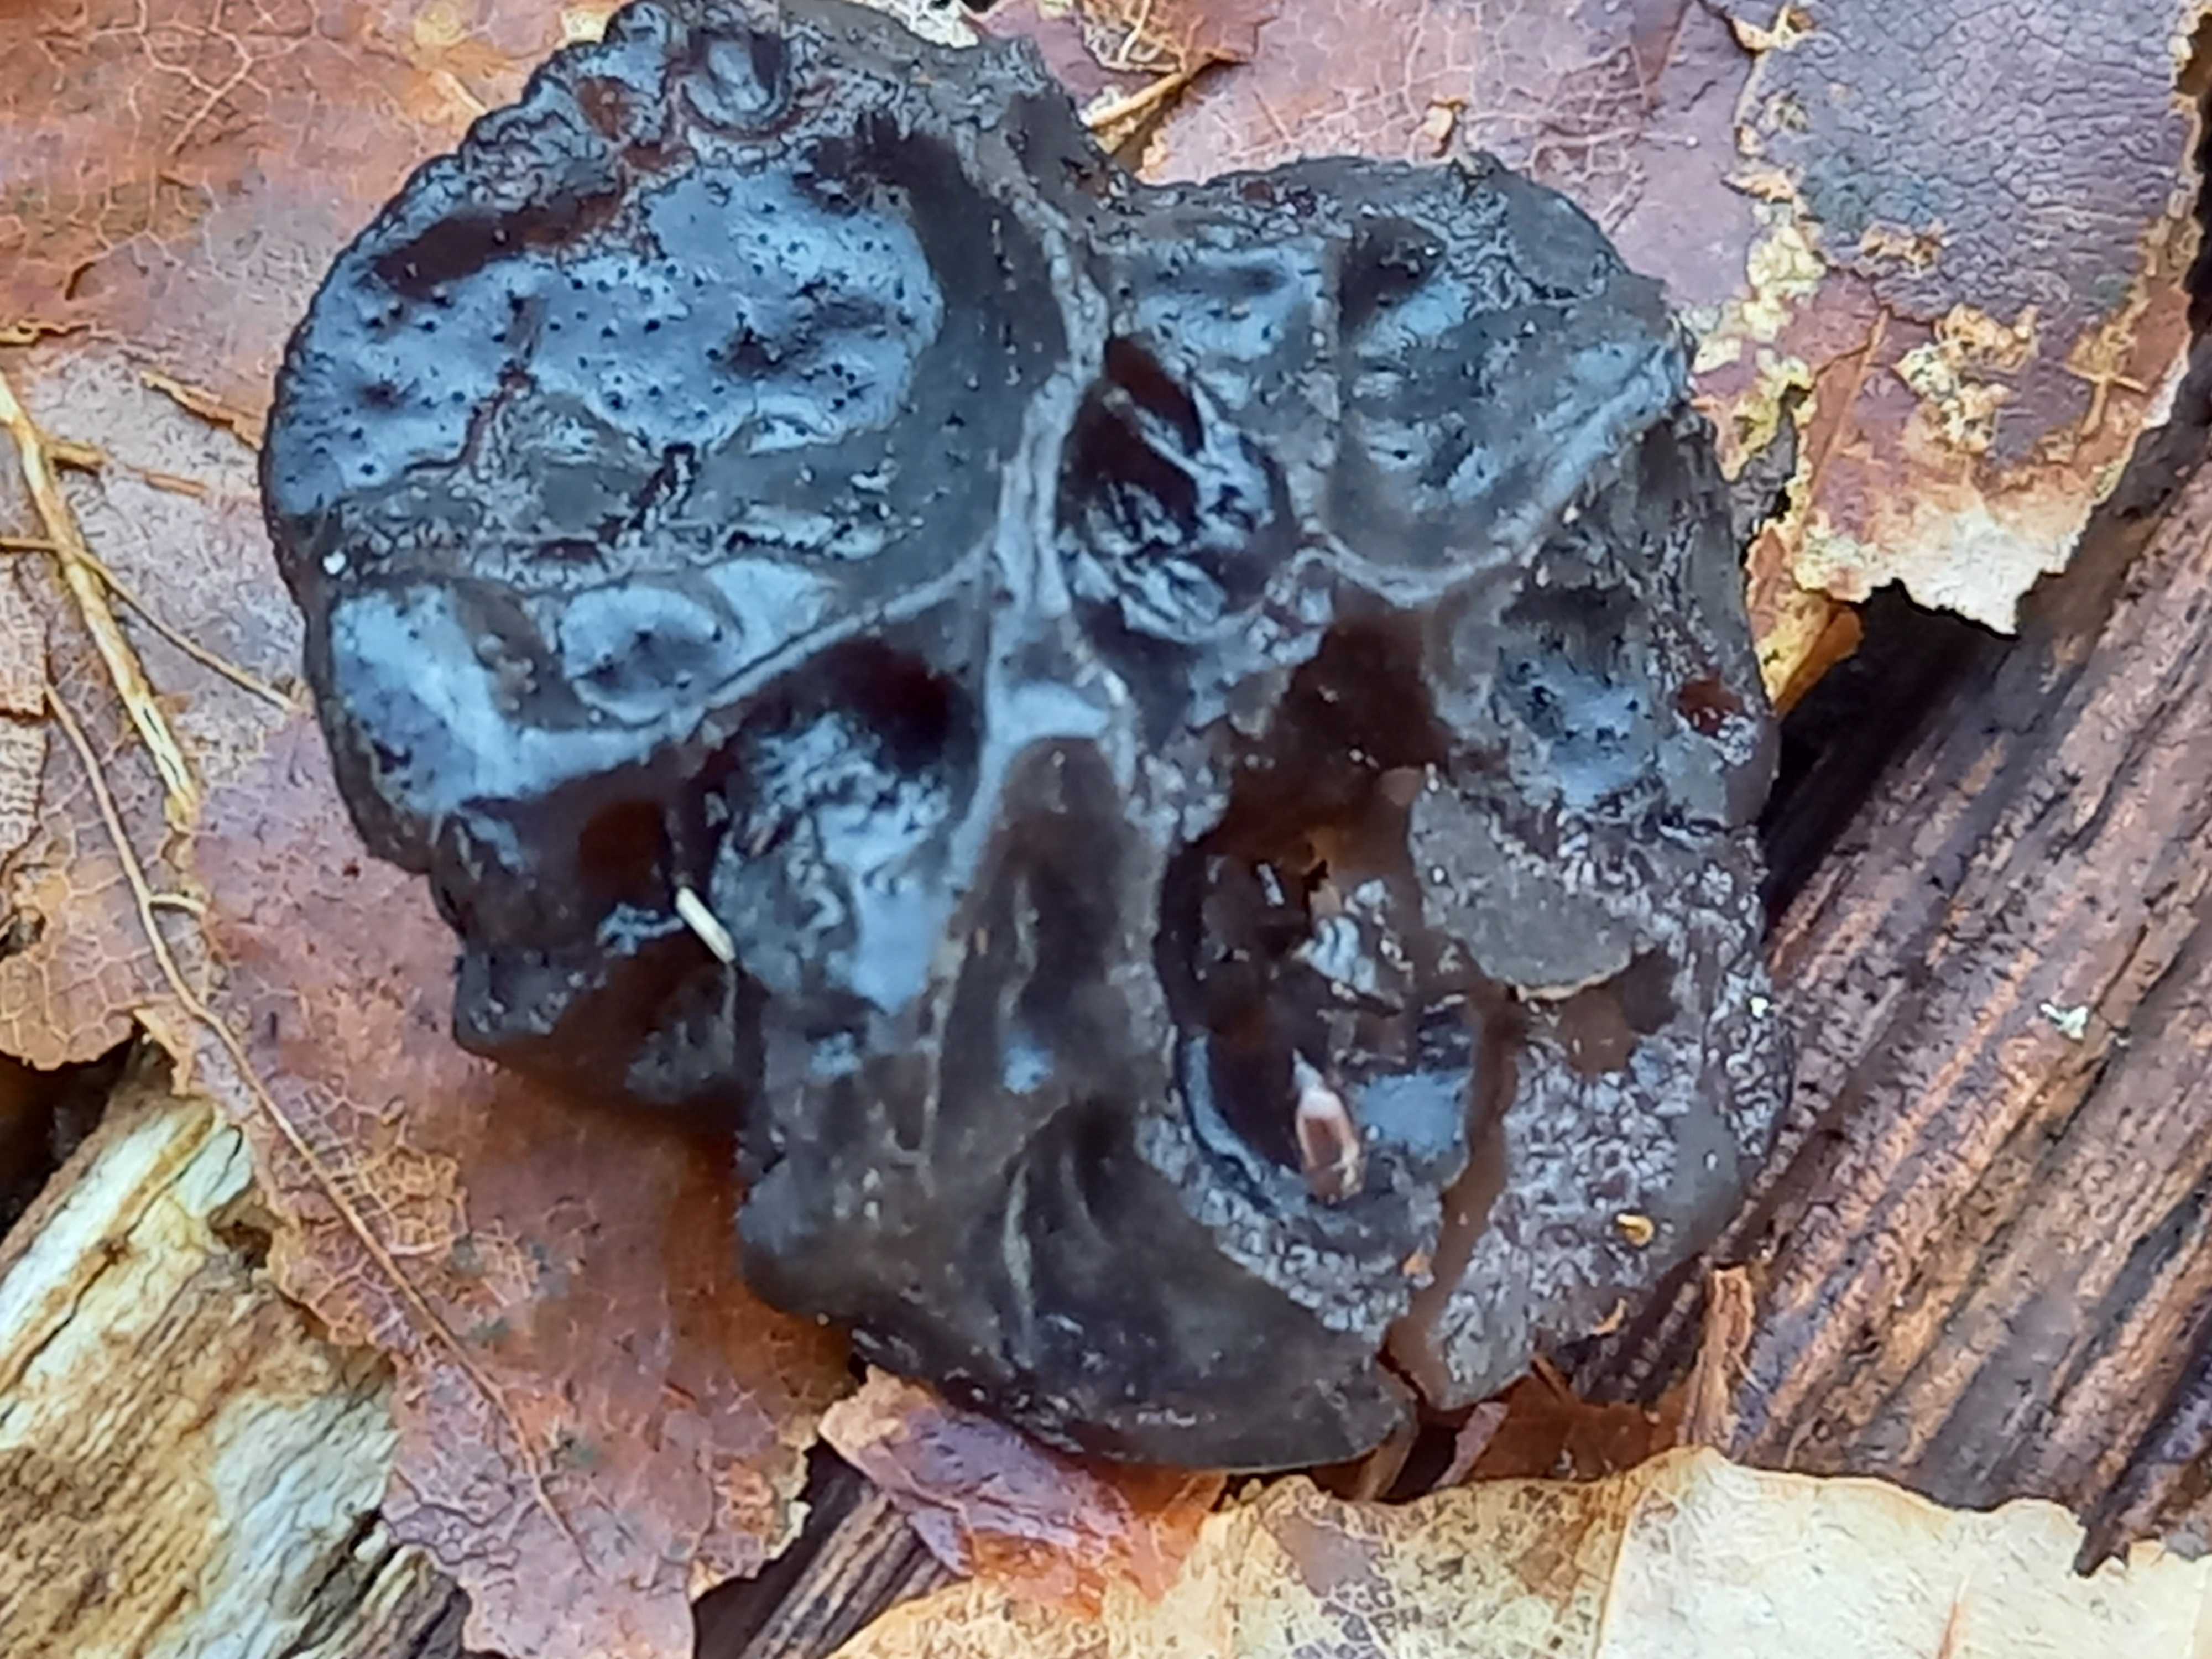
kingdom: Fungi
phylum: Basidiomycota
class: Agaricomycetes
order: Auriculariales
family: Auriculariaceae
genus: Exidia
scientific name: Exidia glandulosa
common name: ege-bævretop
